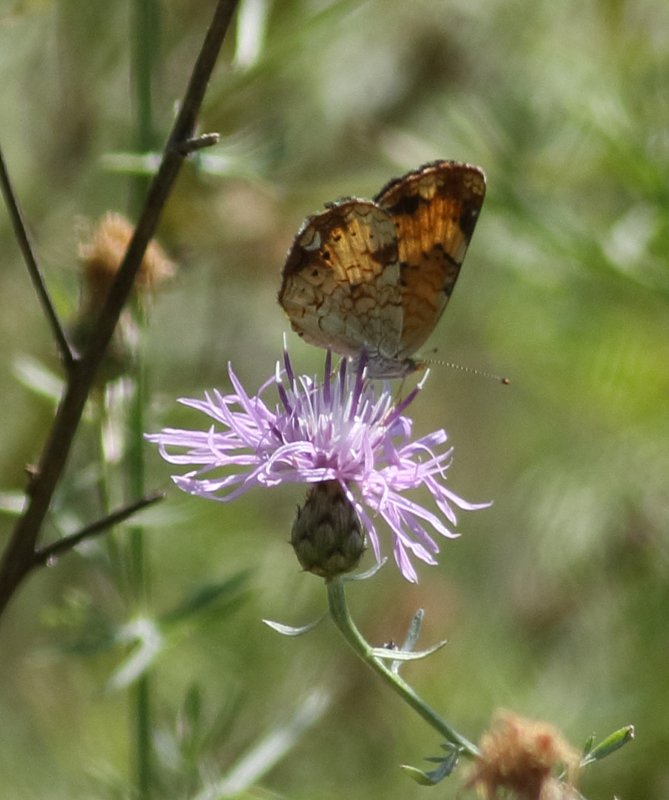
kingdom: Animalia
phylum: Arthropoda
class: Insecta
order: Lepidoptera
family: Nymphalidae
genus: Phyciodes
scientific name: Phyciodes
